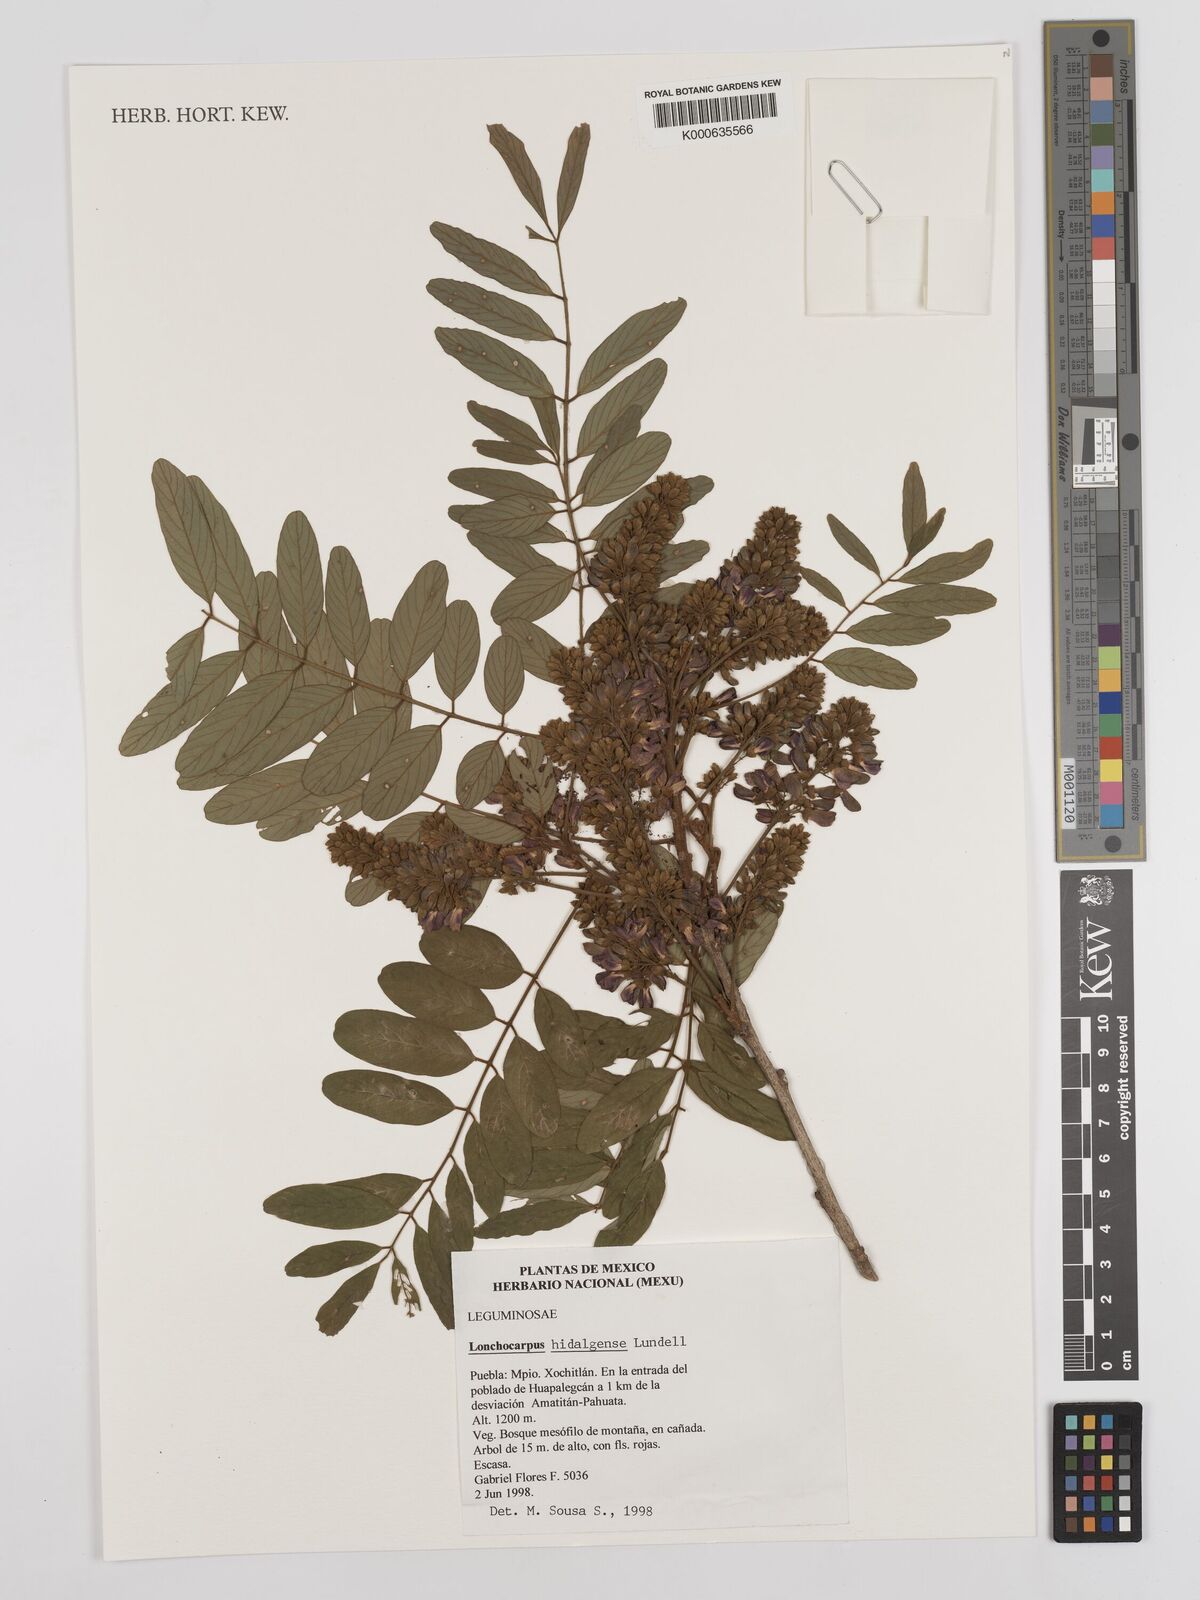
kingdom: Plantae
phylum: Tracheophyta
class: Magnoliopsida
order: Fabales
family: Fabaceae
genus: Lonchocarpus
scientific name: Lonchocarpus hidalgensis
